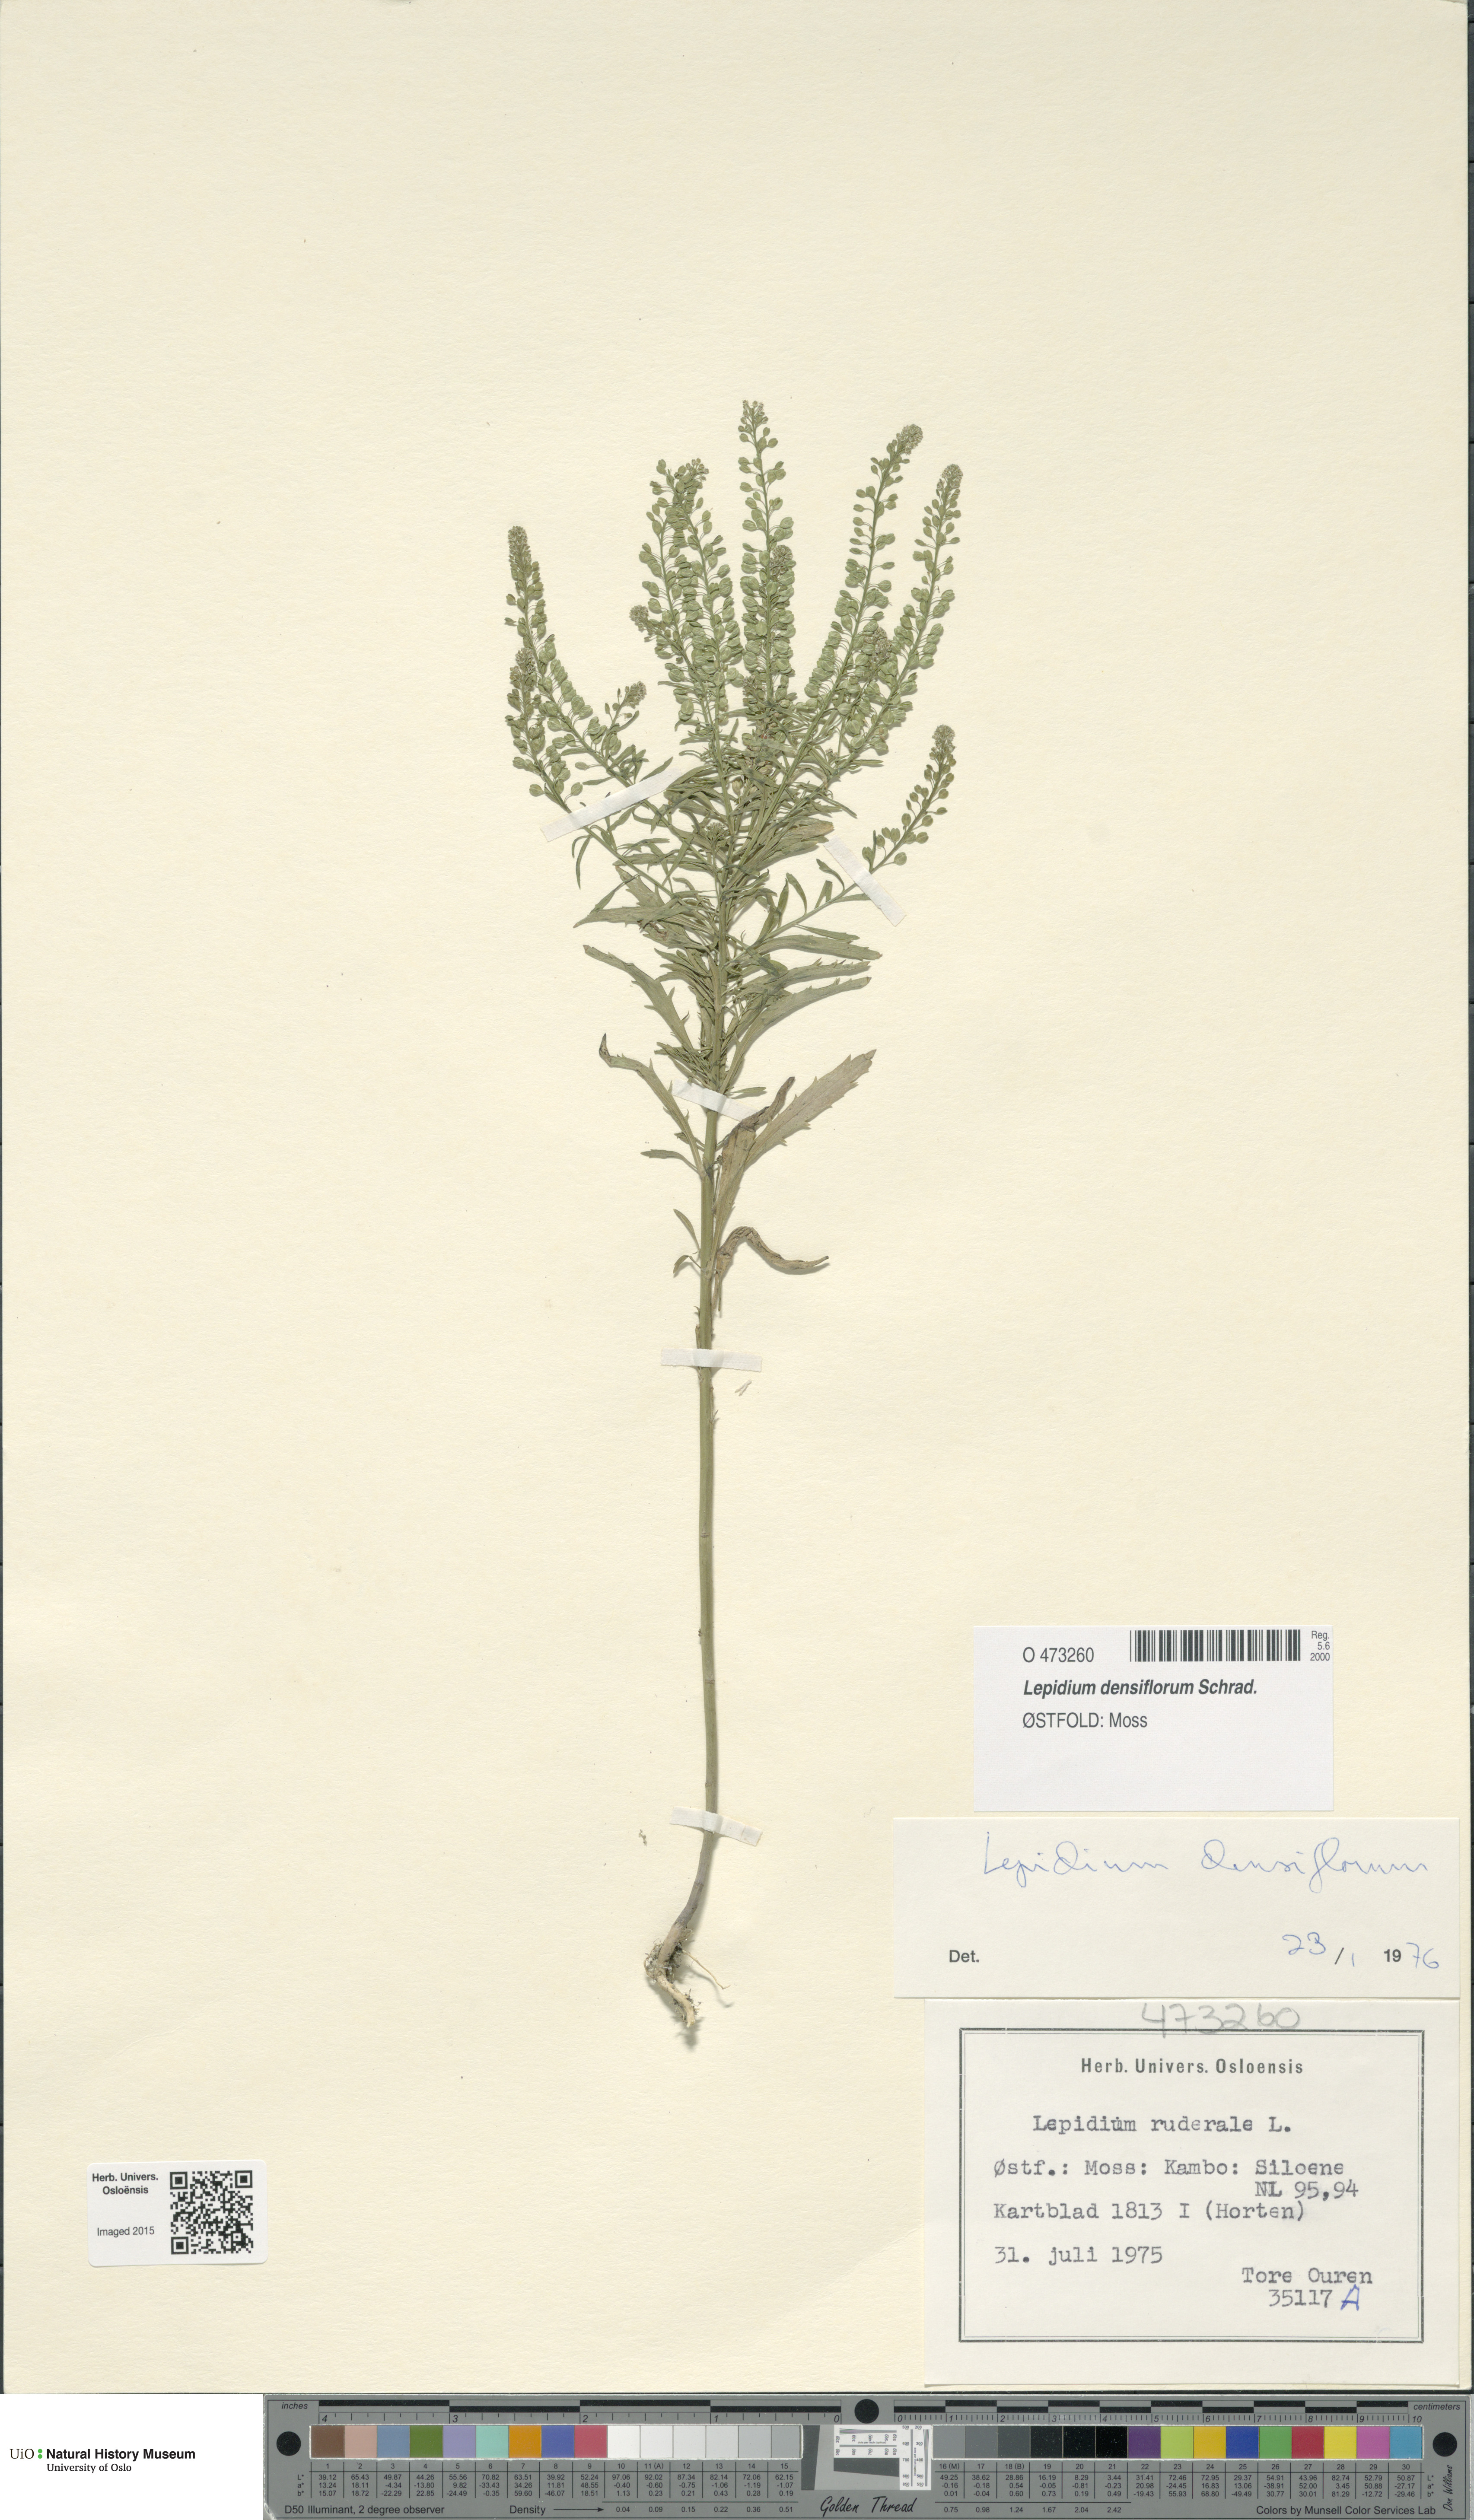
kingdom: Plantae
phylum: Tracheophyta
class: Magnoliopsida
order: Brassicales
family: Brassicaceae
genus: Lepidium
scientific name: Lepidium densiflorum
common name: Miner's pepperwort
